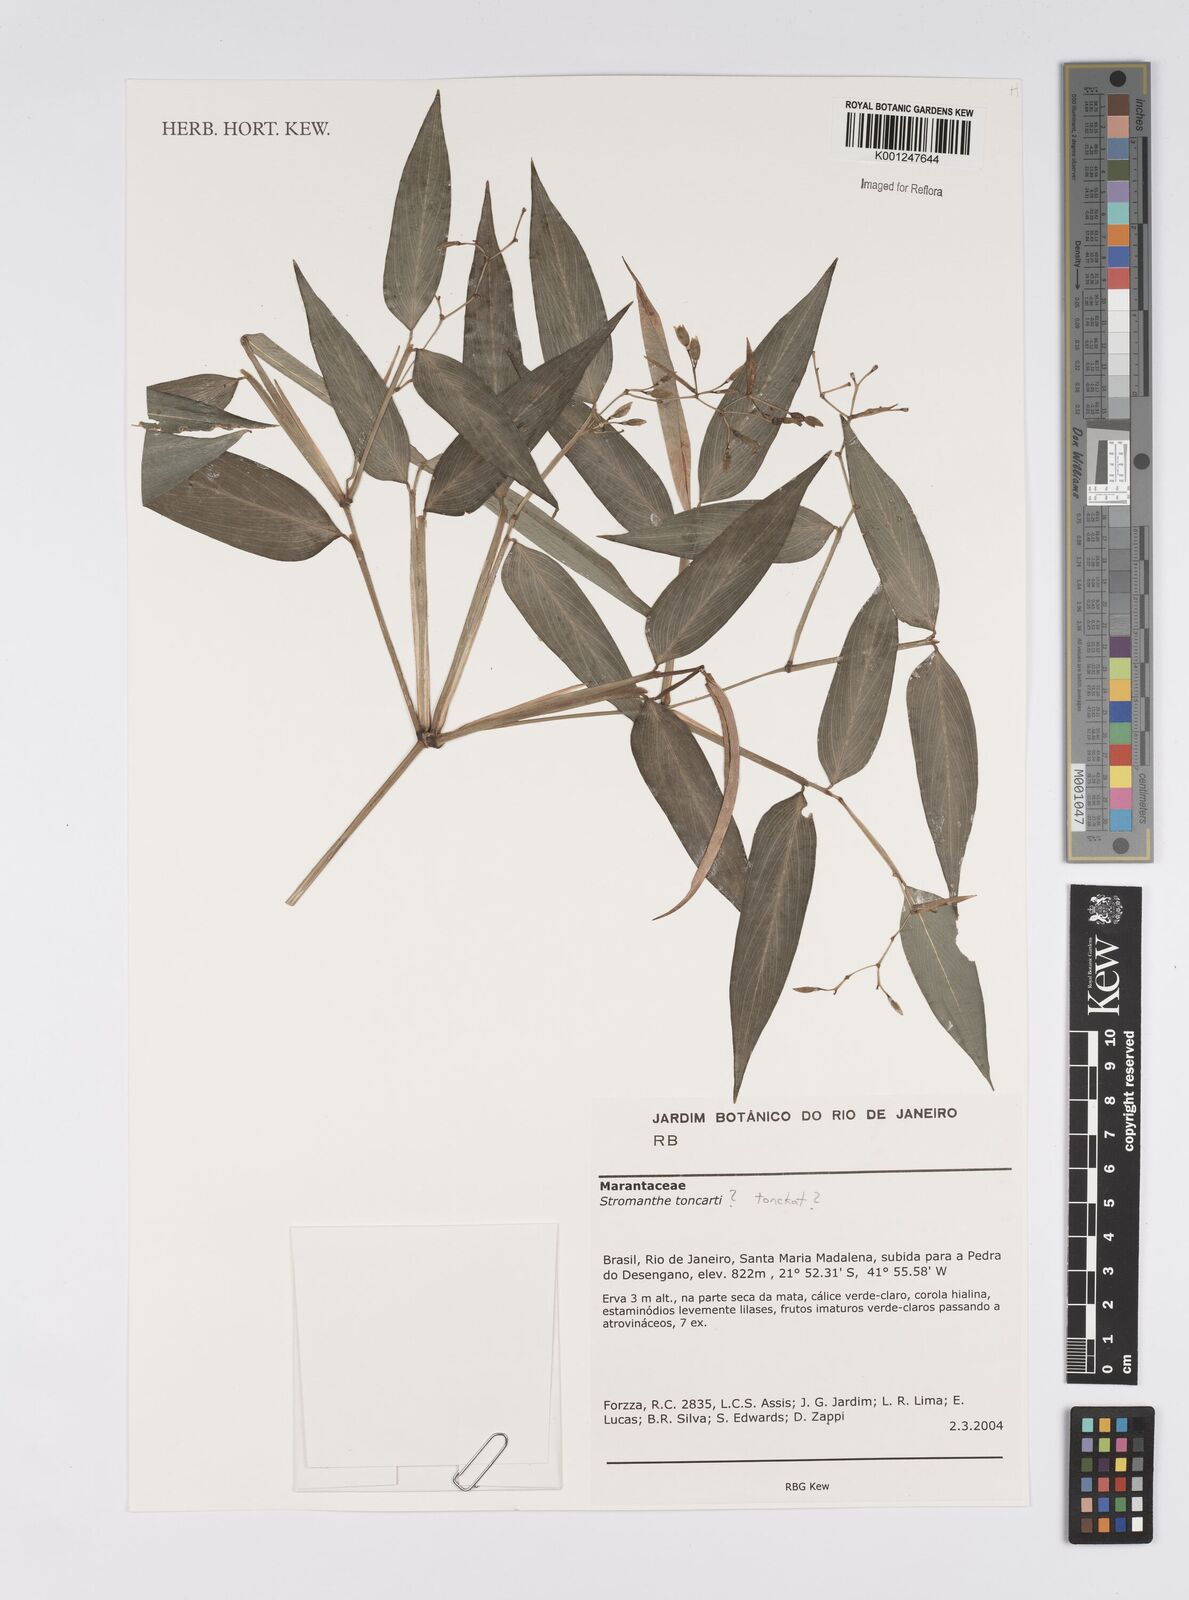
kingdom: Plantae
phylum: Tracheophyta
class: Liliopsida
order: Zingiberales
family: Marantaceae
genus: Stromanthe
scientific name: Stromanthe tonckat
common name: Stromanthe
